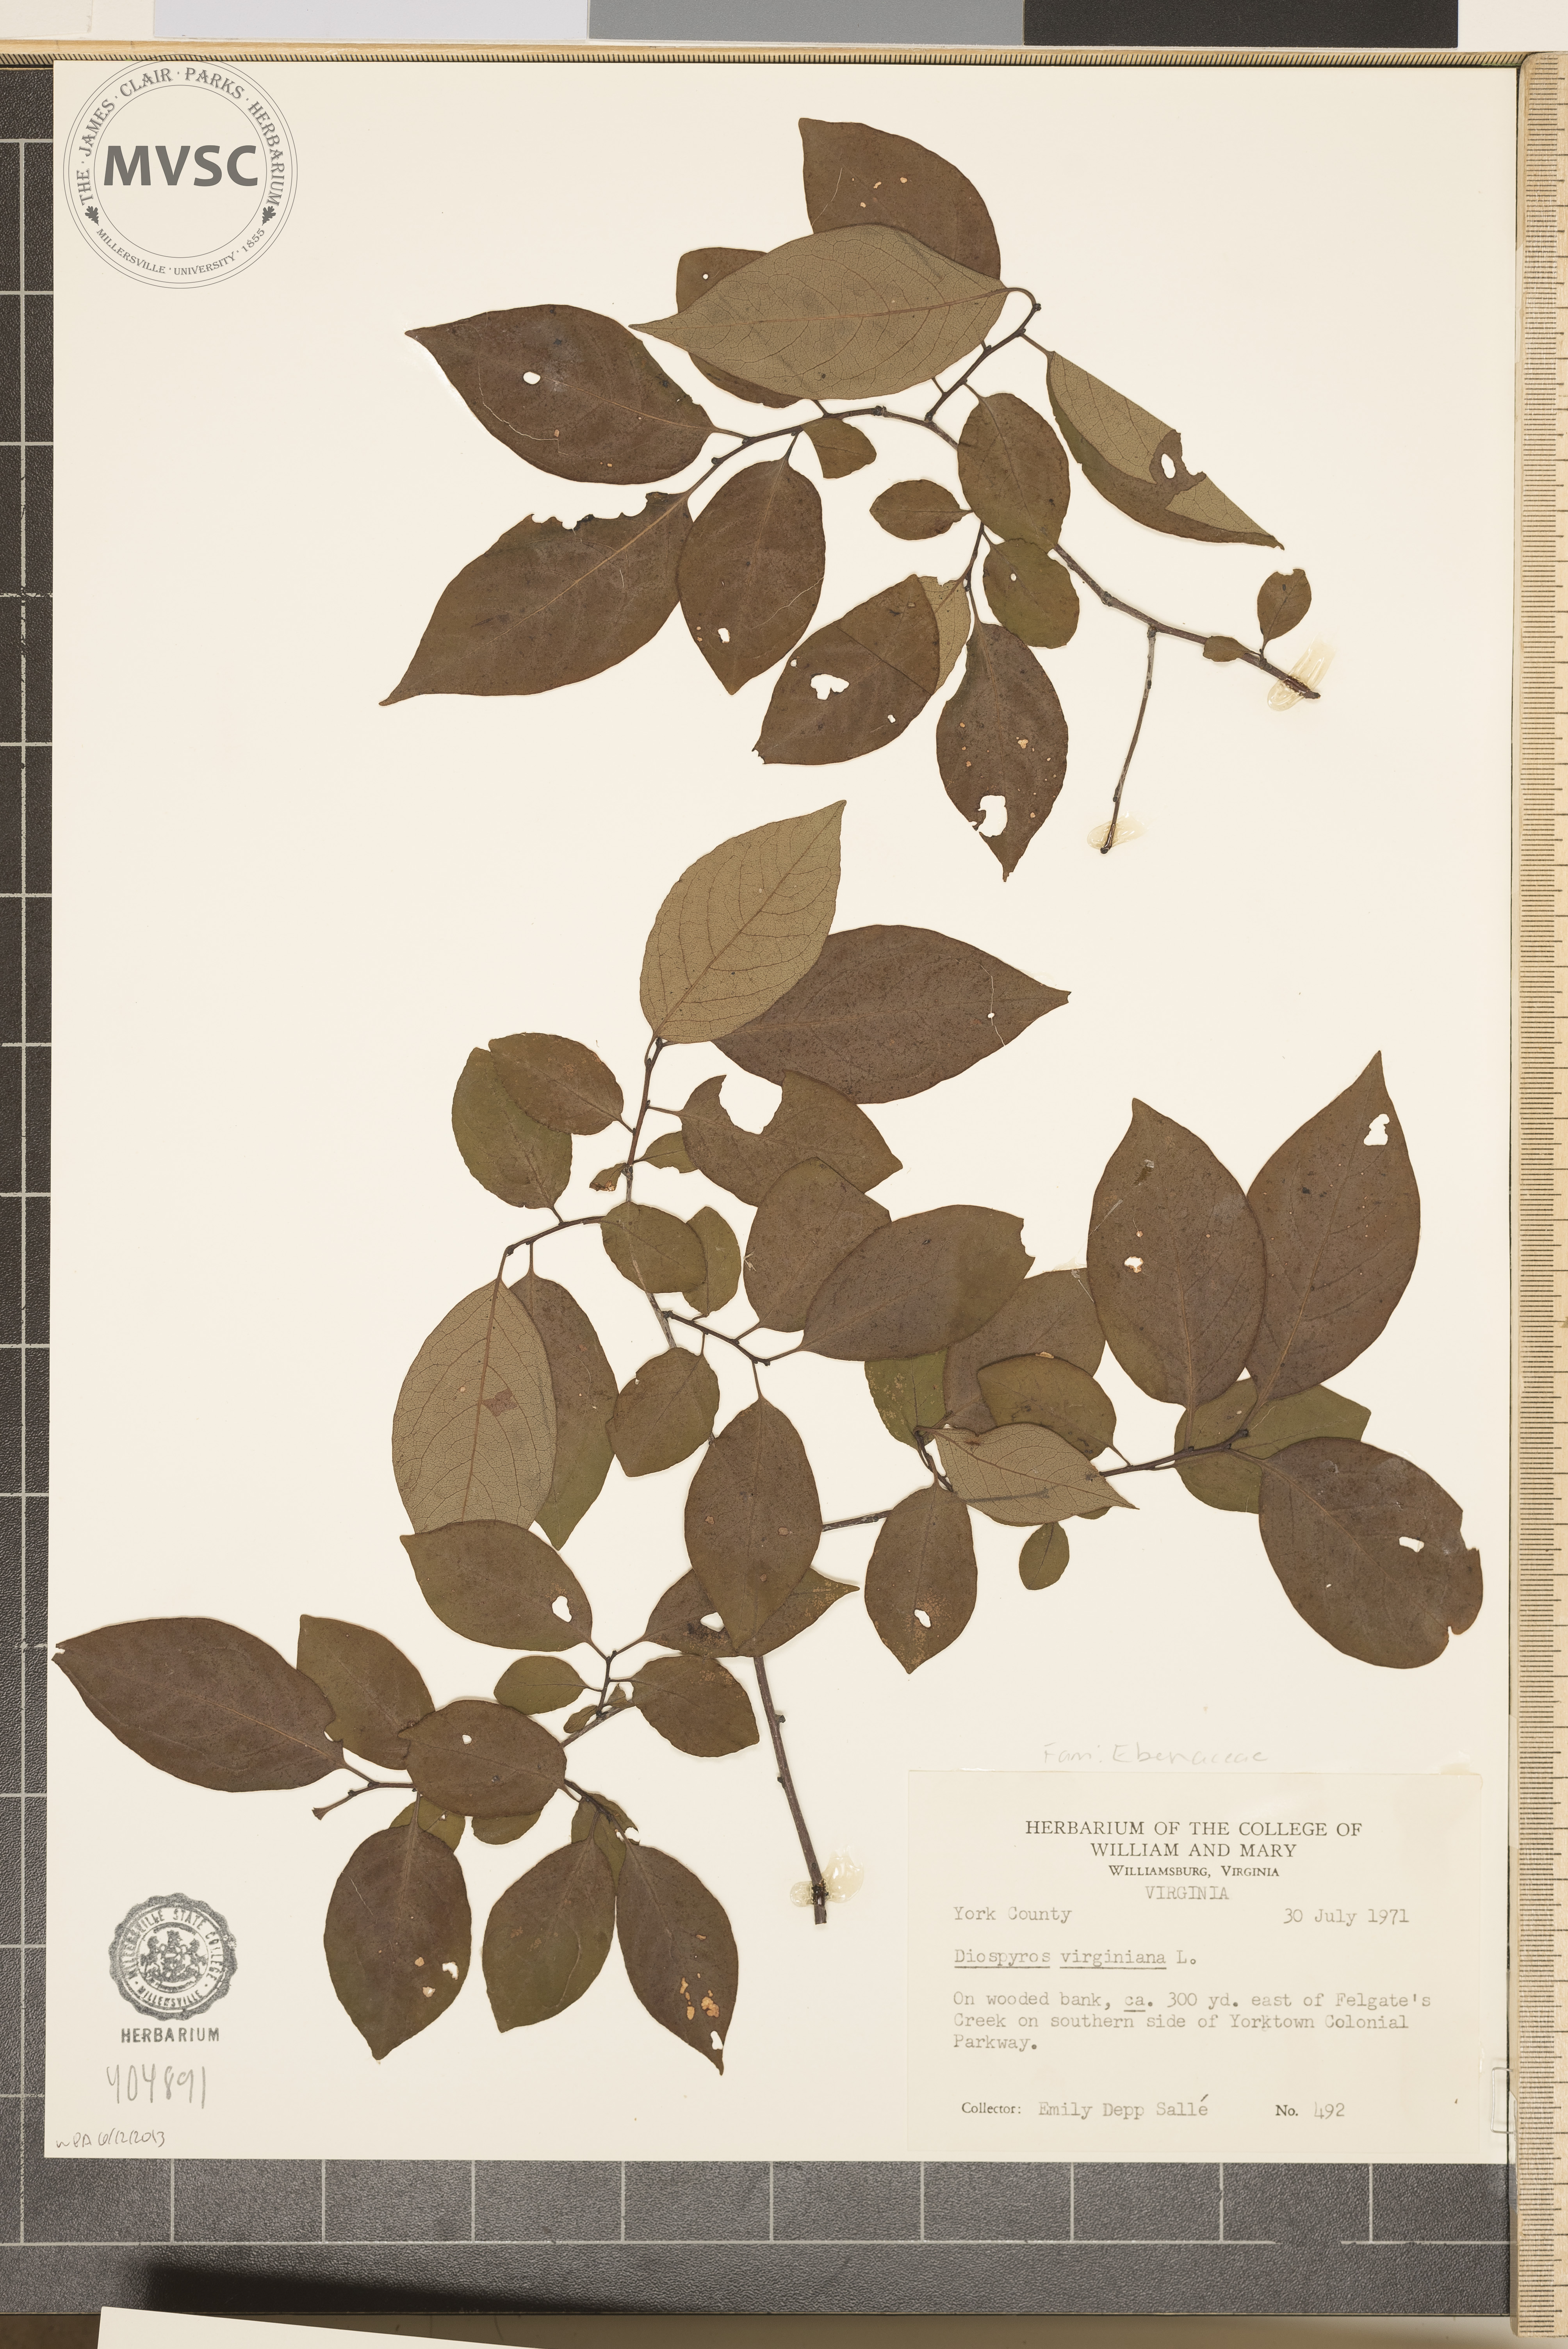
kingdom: Plantae
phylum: Tracheophyta
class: Magnoliopsida
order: Ericales
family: Ebenaceae
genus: Diospyros
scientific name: Diospyros virginiana
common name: Persimmon
